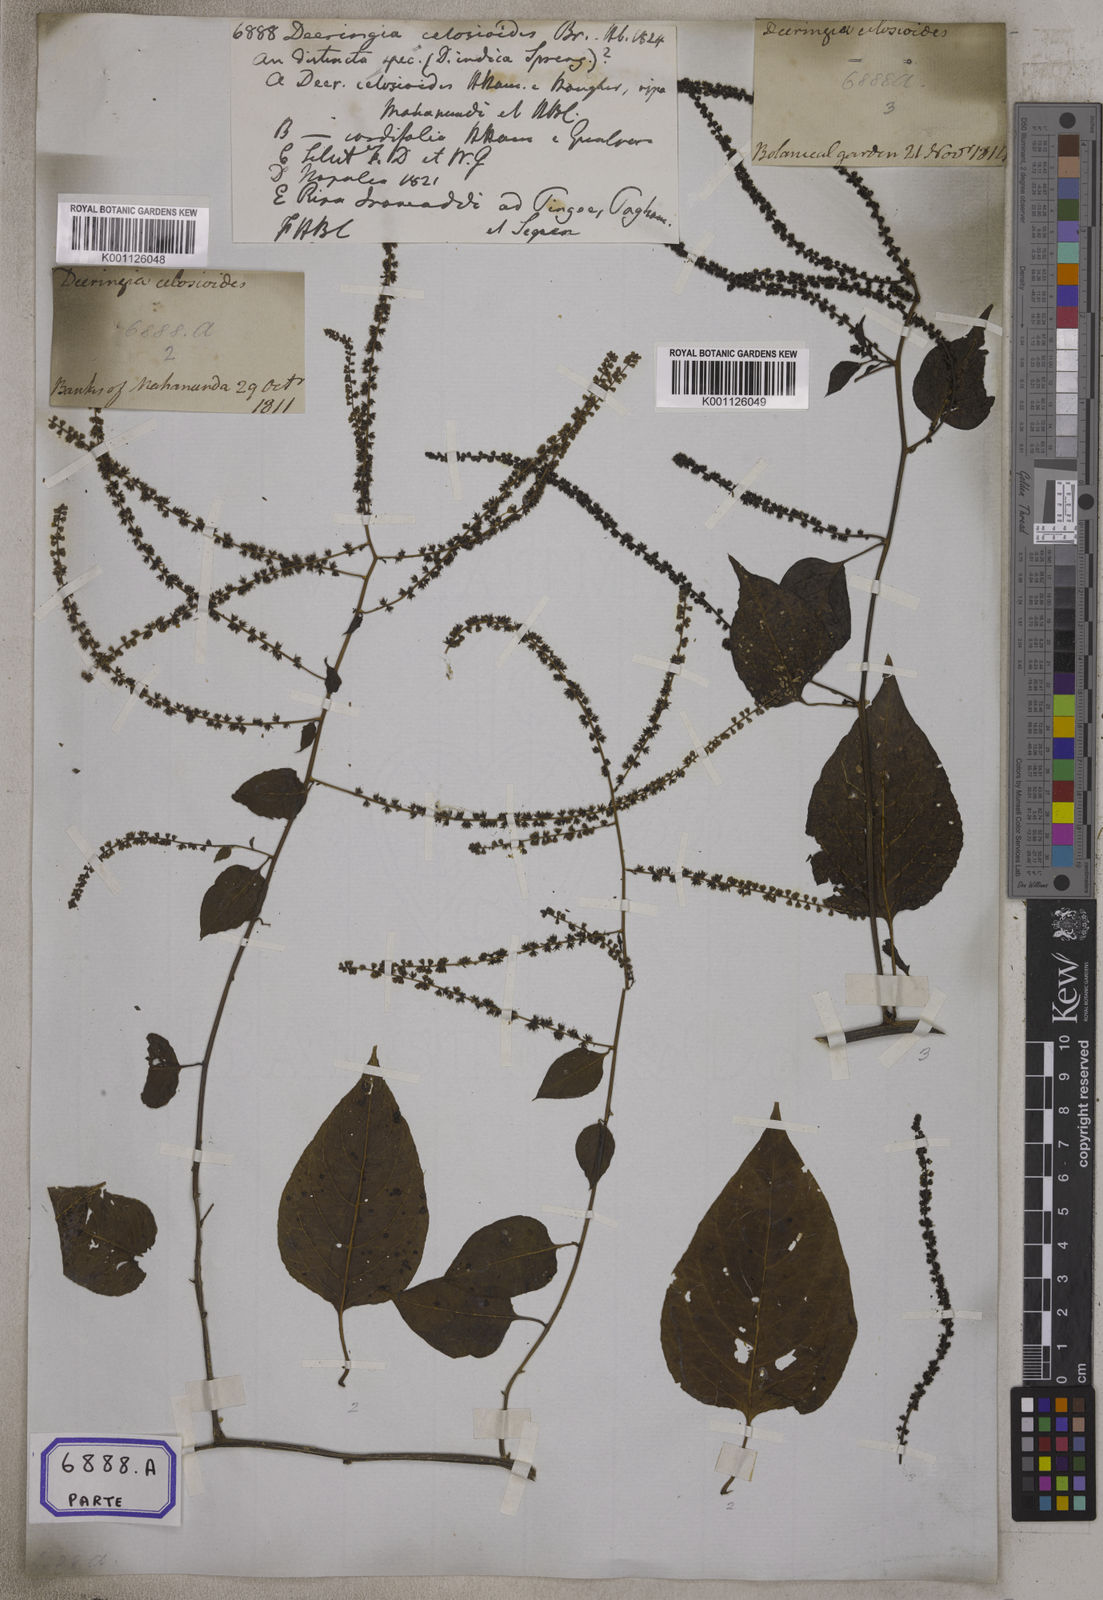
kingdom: Plantae
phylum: Tracheophyta
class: Magnoliopsida
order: Caryophyllales
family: Amaranthaceae
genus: Deeringia
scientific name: Deeringia amaranthoides
